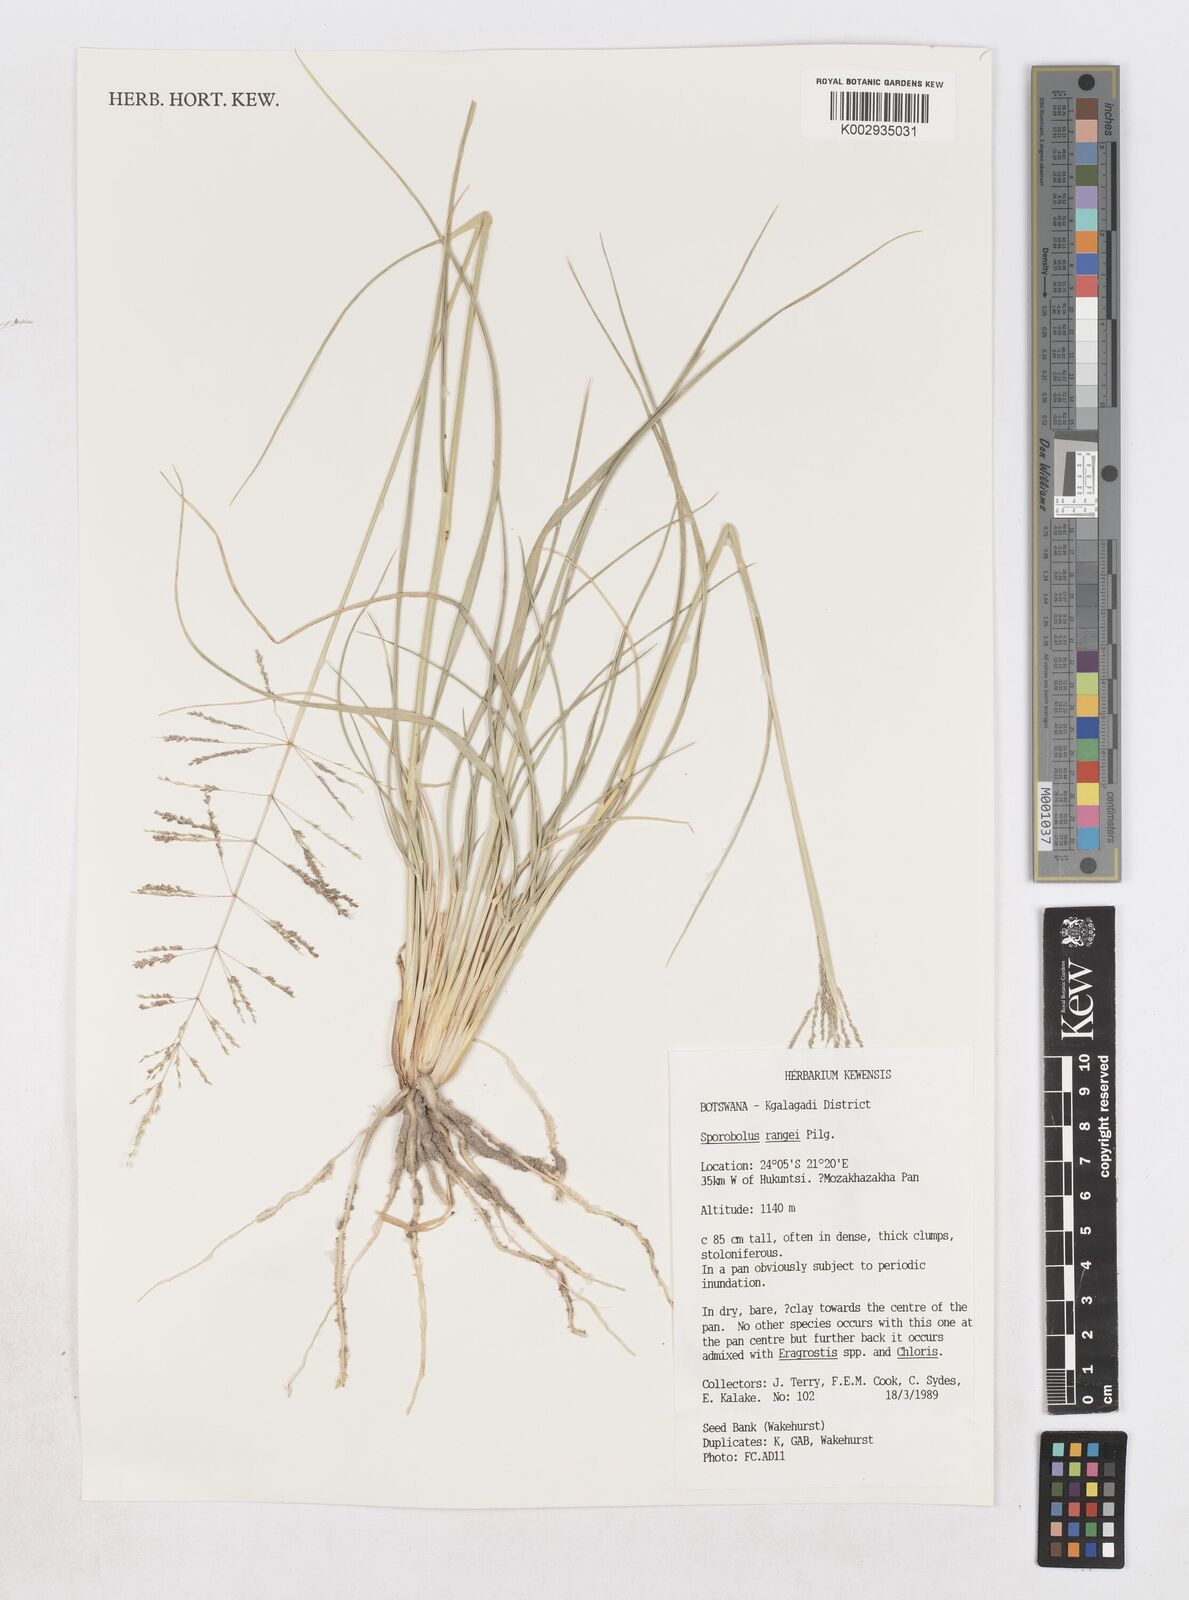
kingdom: Plantae
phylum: Tracheophyta
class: Liliopsida
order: Poales
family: Poaceae
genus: Sporobolus
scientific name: Sporobolus ioclados
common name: Pan dropseed
